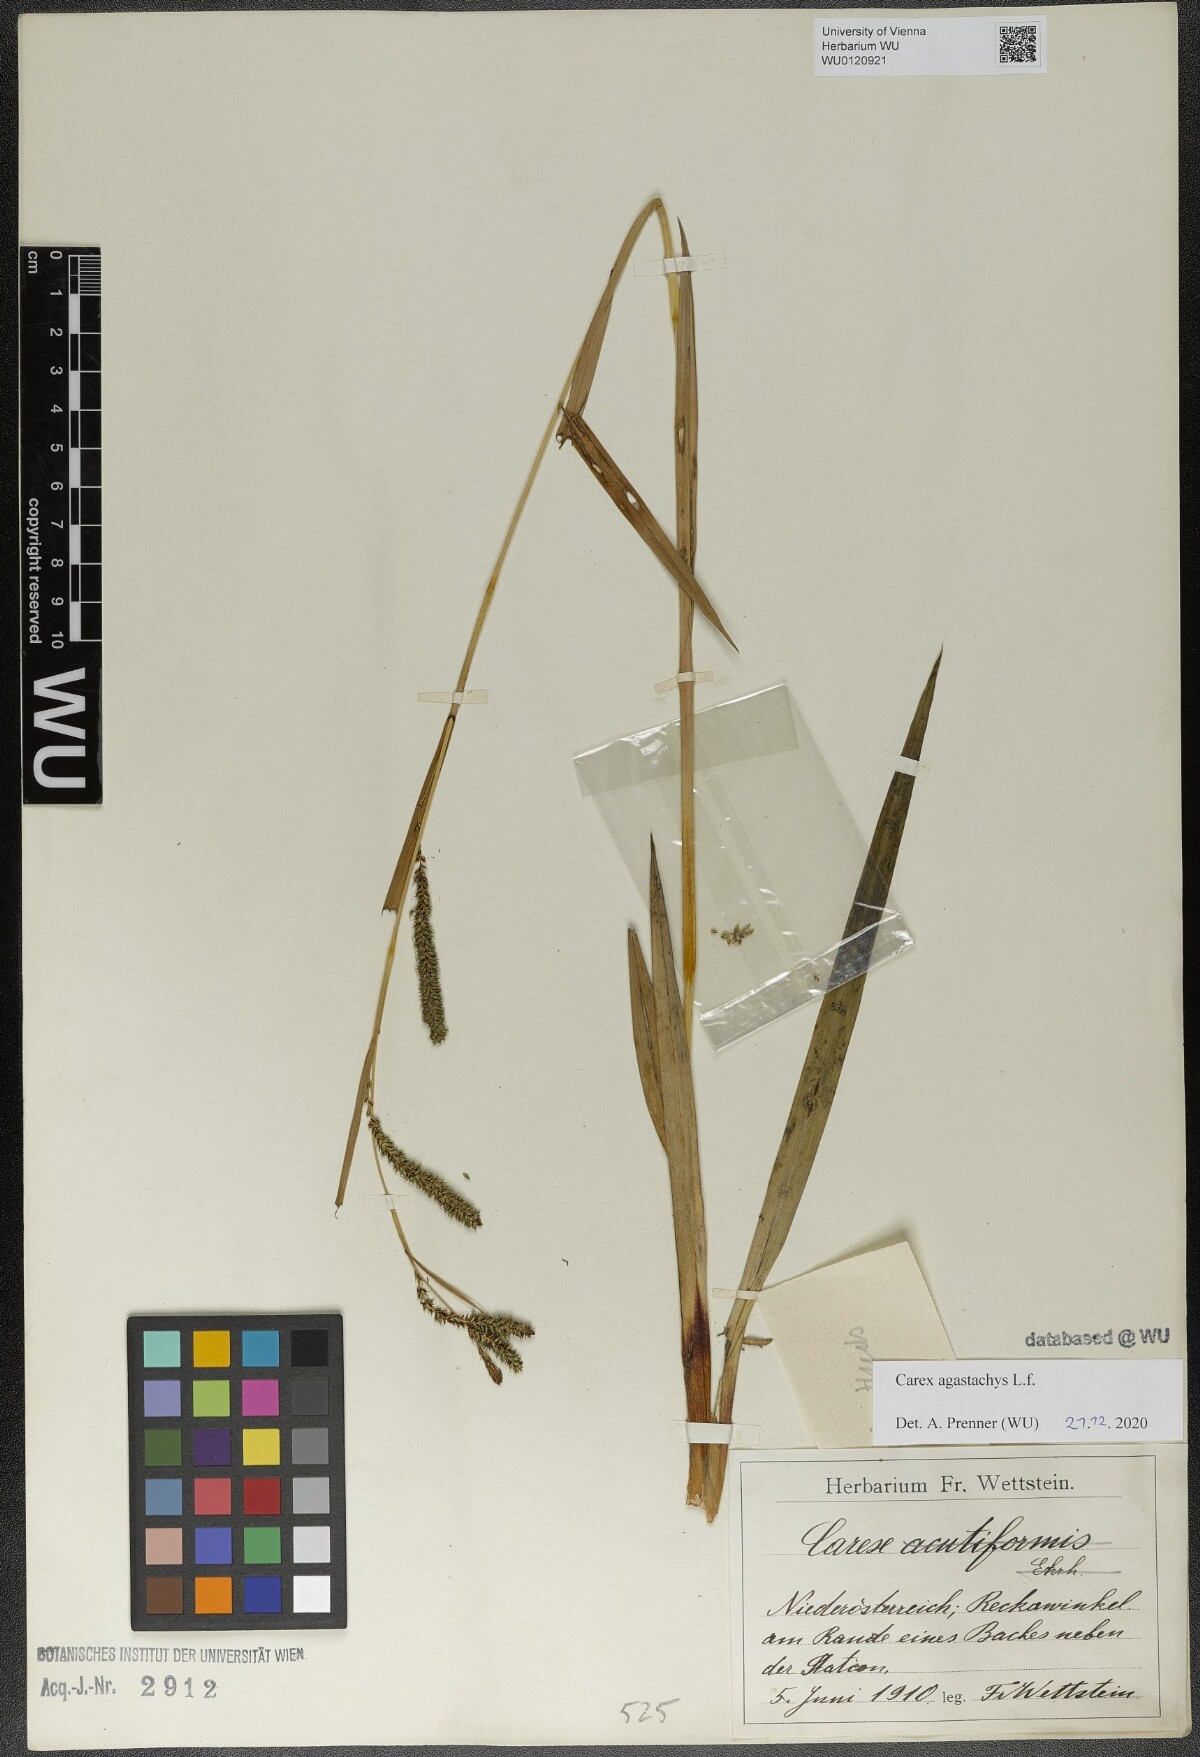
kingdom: Plantae
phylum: Tracheophyta
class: Liliopsida
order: Poales
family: Cyperaceae
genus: Carex
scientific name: Carex agastachys
